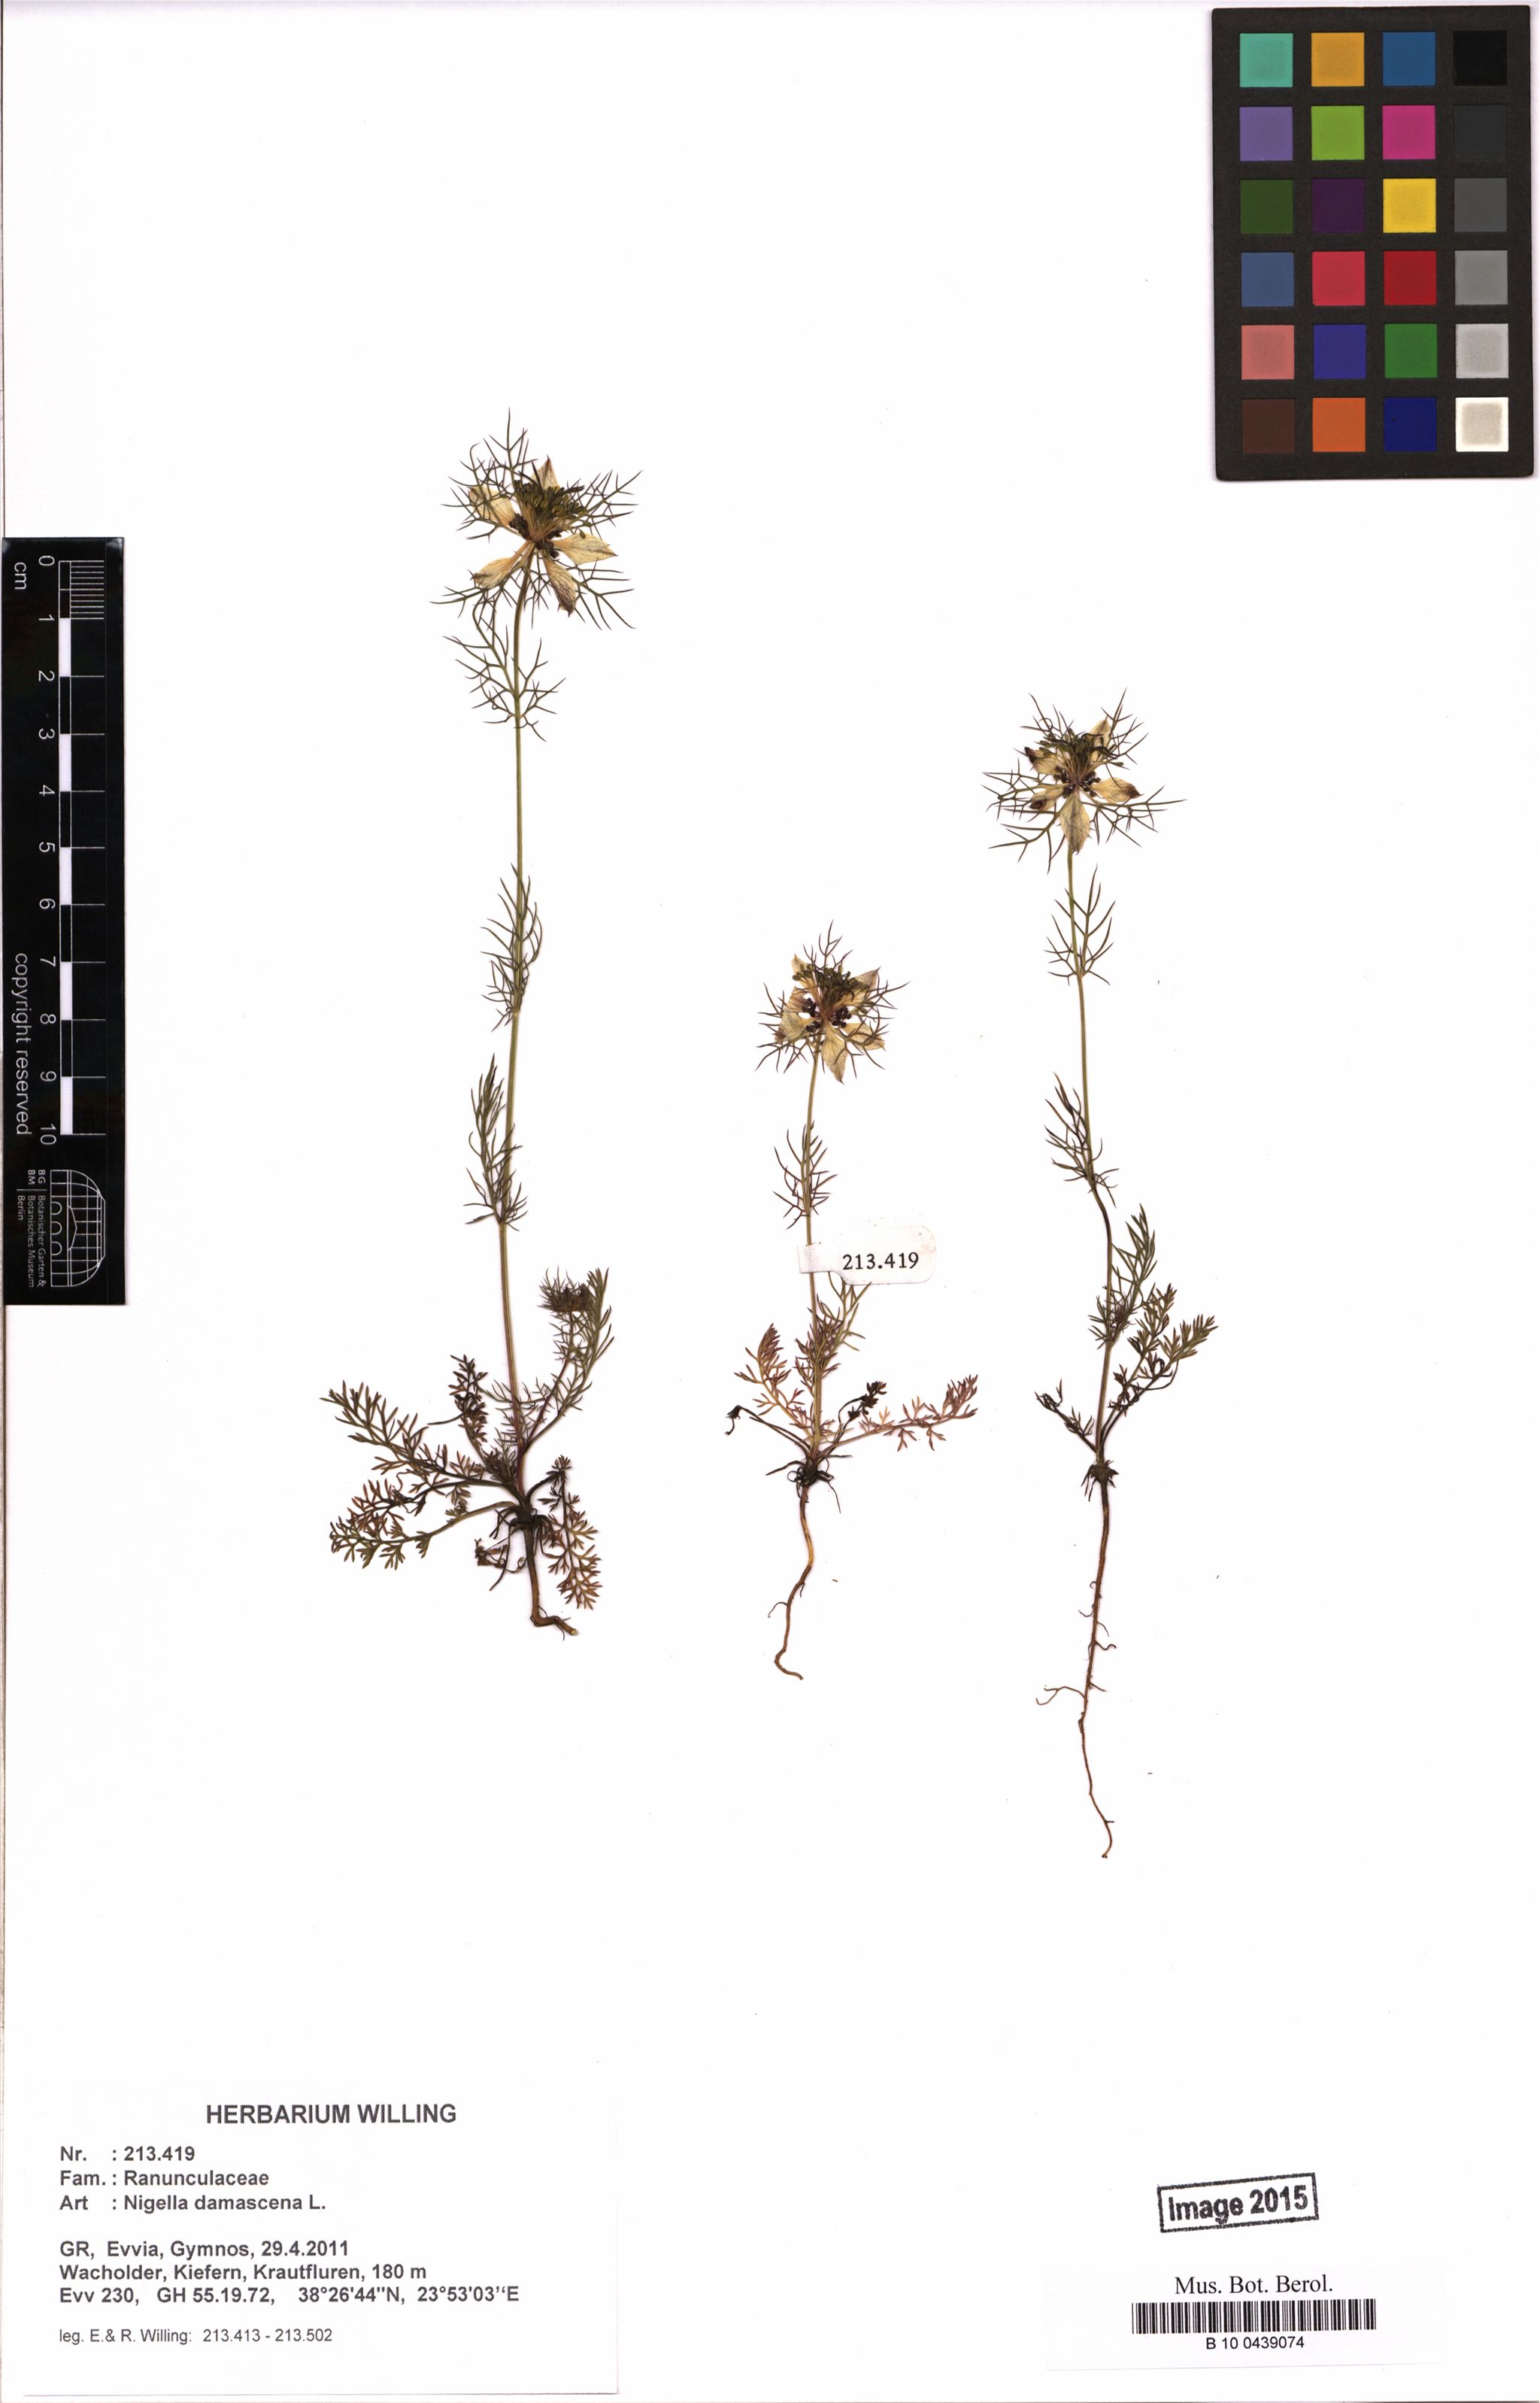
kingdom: Plantae
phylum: Tracheophyta
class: Magnoliopsida
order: Ranunculales
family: Ranunculaceae
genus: Nigella
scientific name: Nigella damascena
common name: Love-in-a-mist
